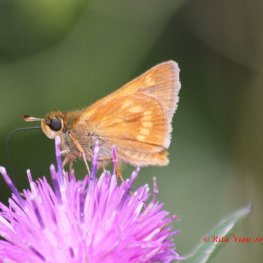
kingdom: Animalia
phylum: Arthropoda
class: Insecta
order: Lepidoptera
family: Hesperiidae
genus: Polites
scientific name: Polites
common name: Long Dash Skipper
